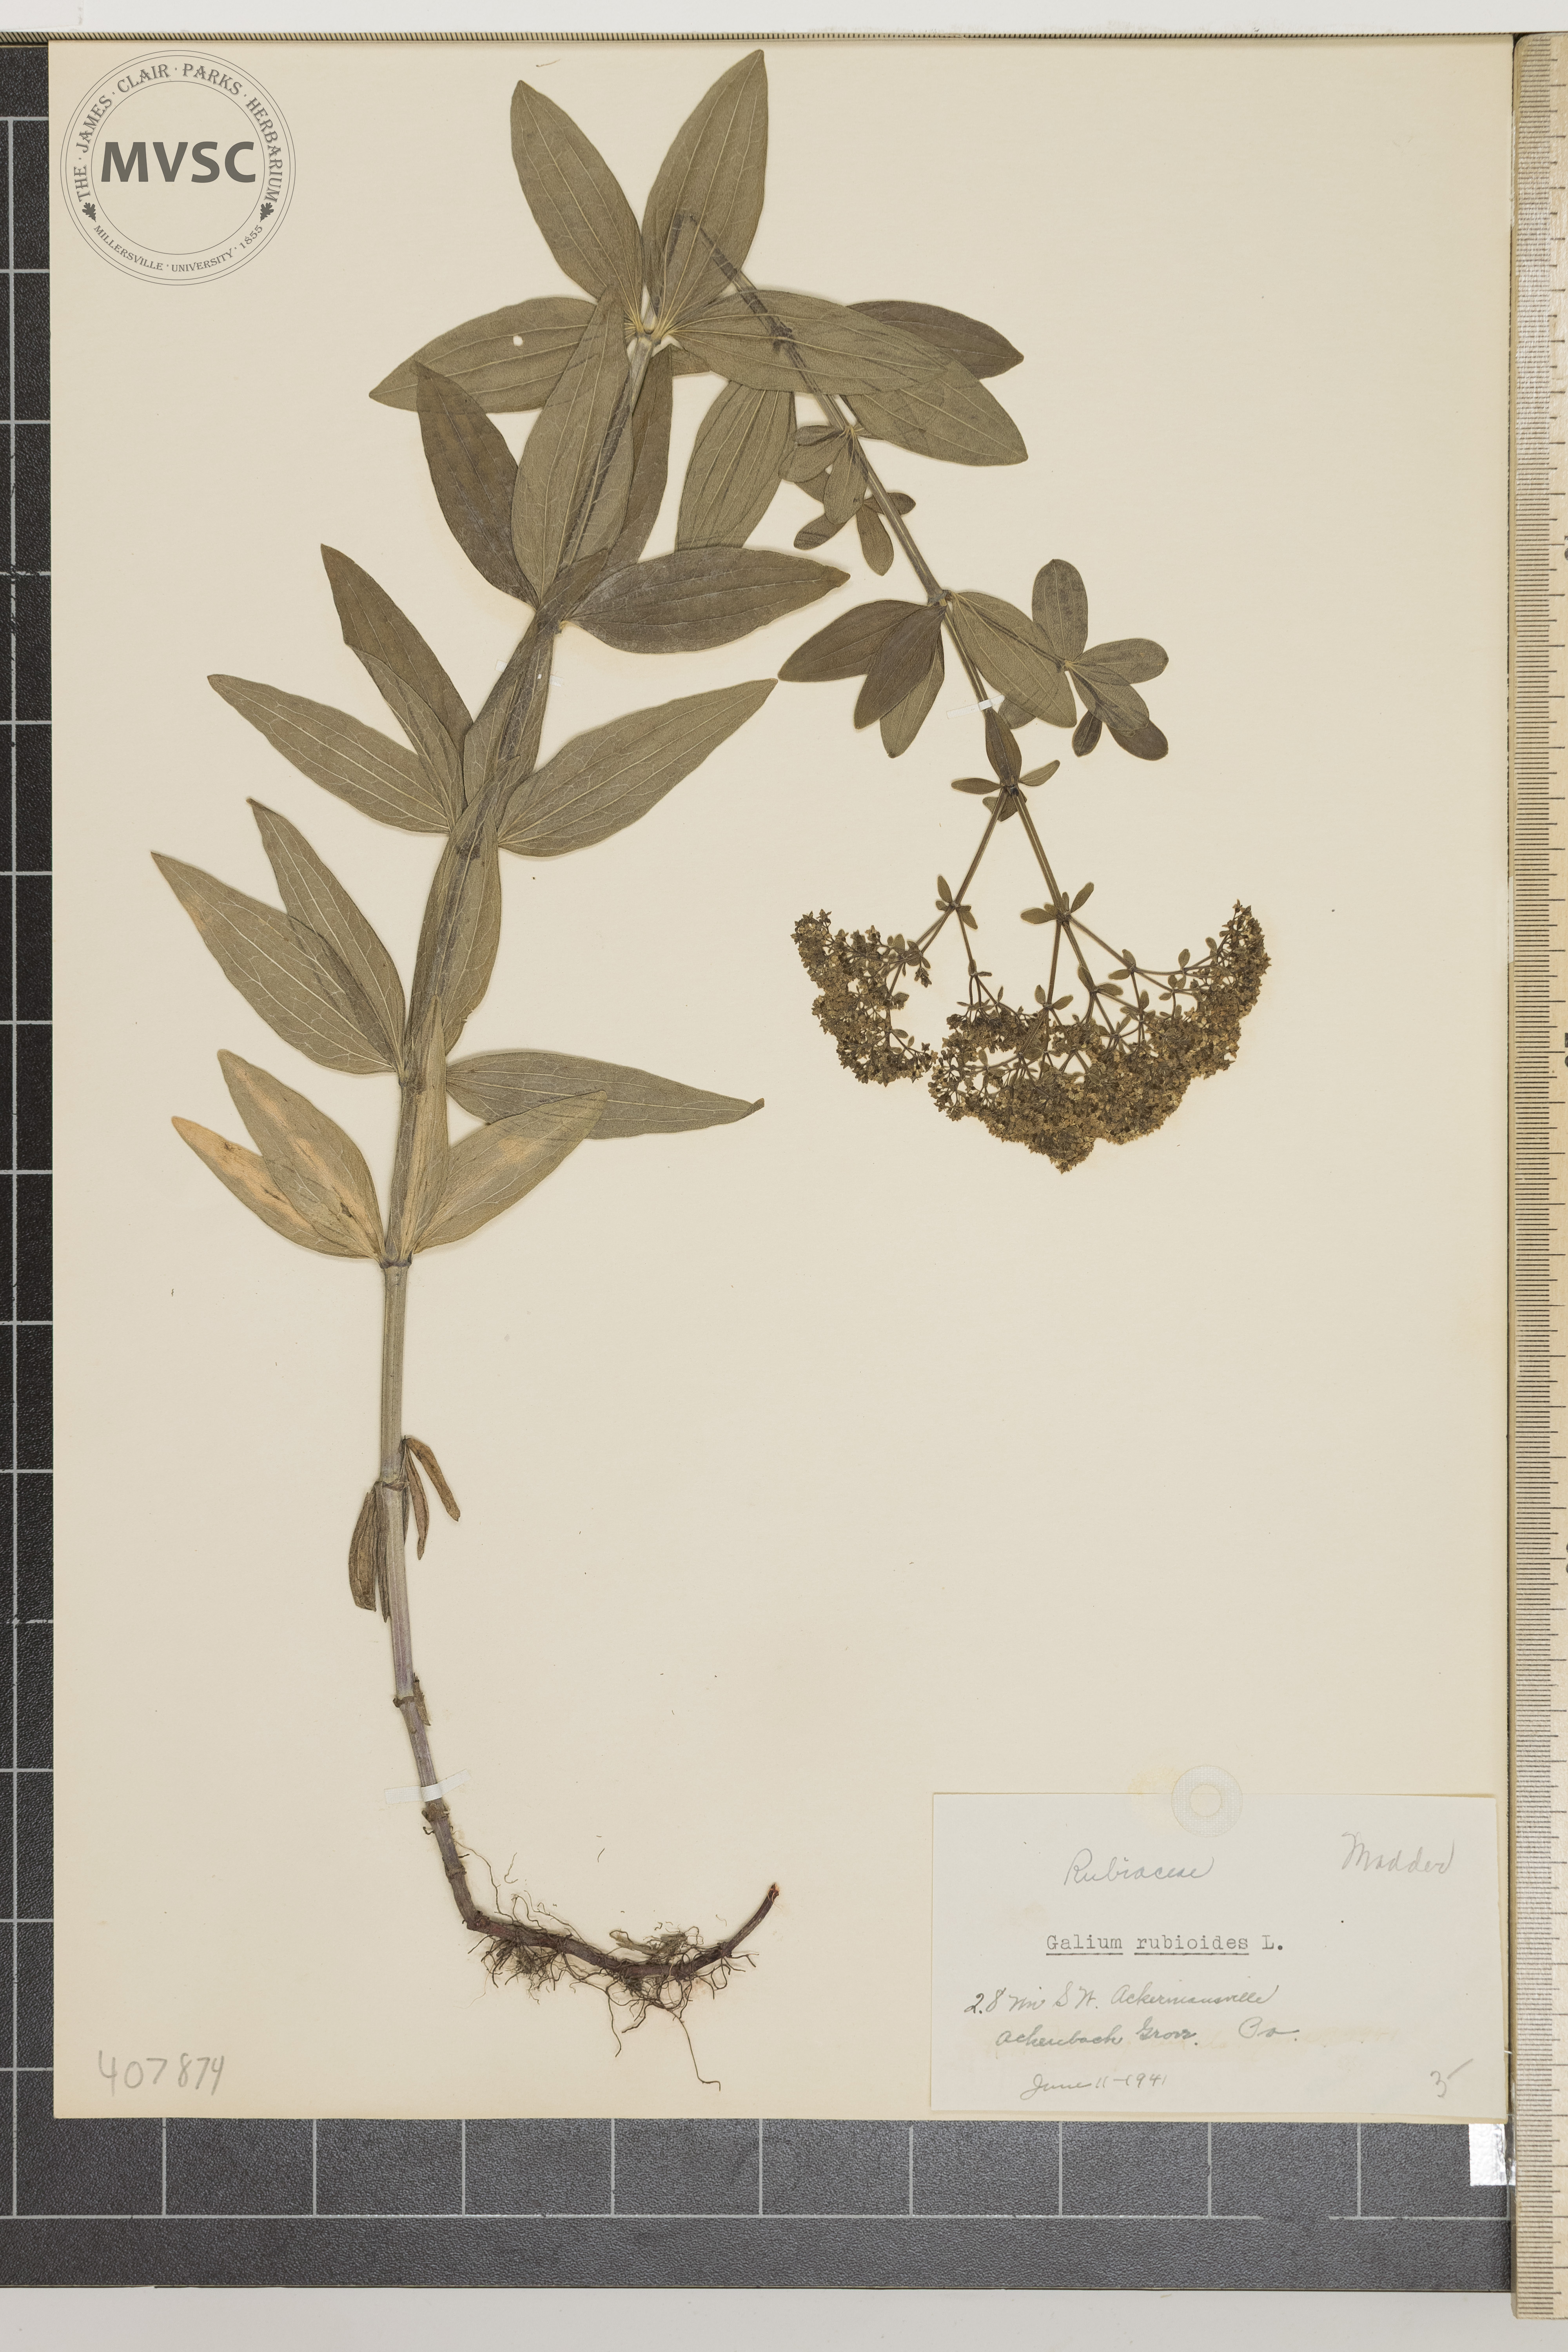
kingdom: Plantae
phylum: Tracheophyta
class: Magnoliopsida
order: Gentianales
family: Rubiaceae
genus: Galium
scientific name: Galium rubioides
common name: European bedstraw
